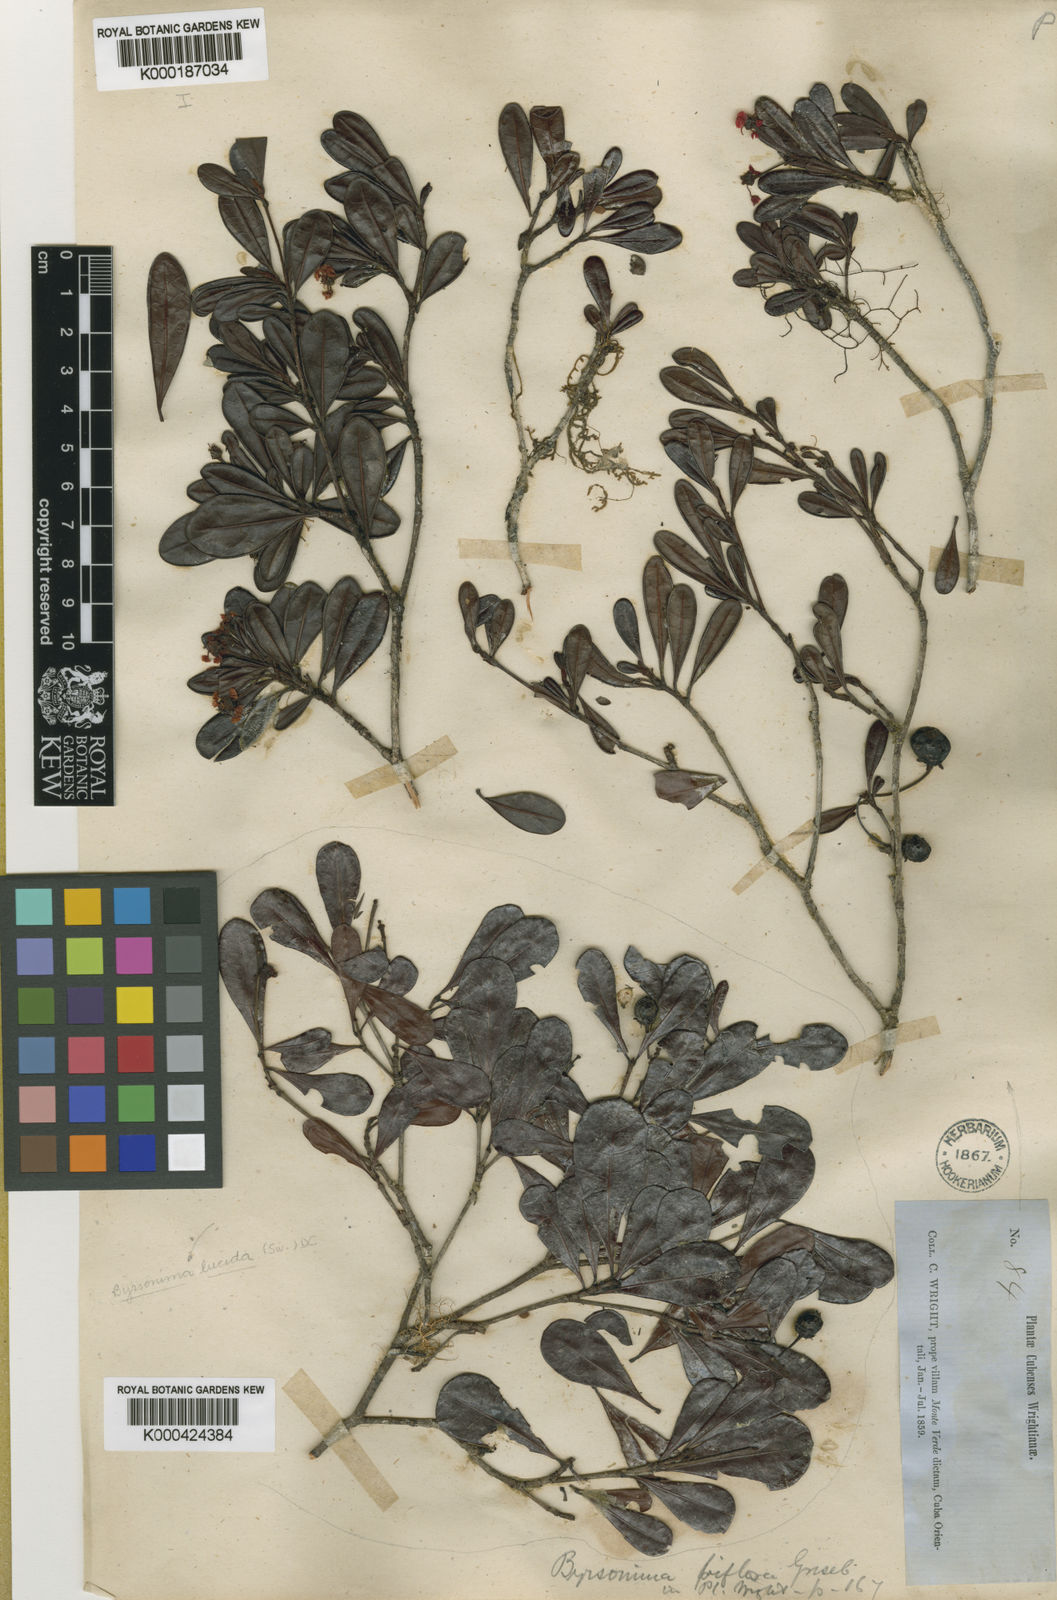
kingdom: Plantae
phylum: Tracheophyta
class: Magnoliopsida
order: Malpighiales
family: Malpighiaceae
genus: Byrsonima
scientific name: Byrsonima lucida
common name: Clam-cherry
